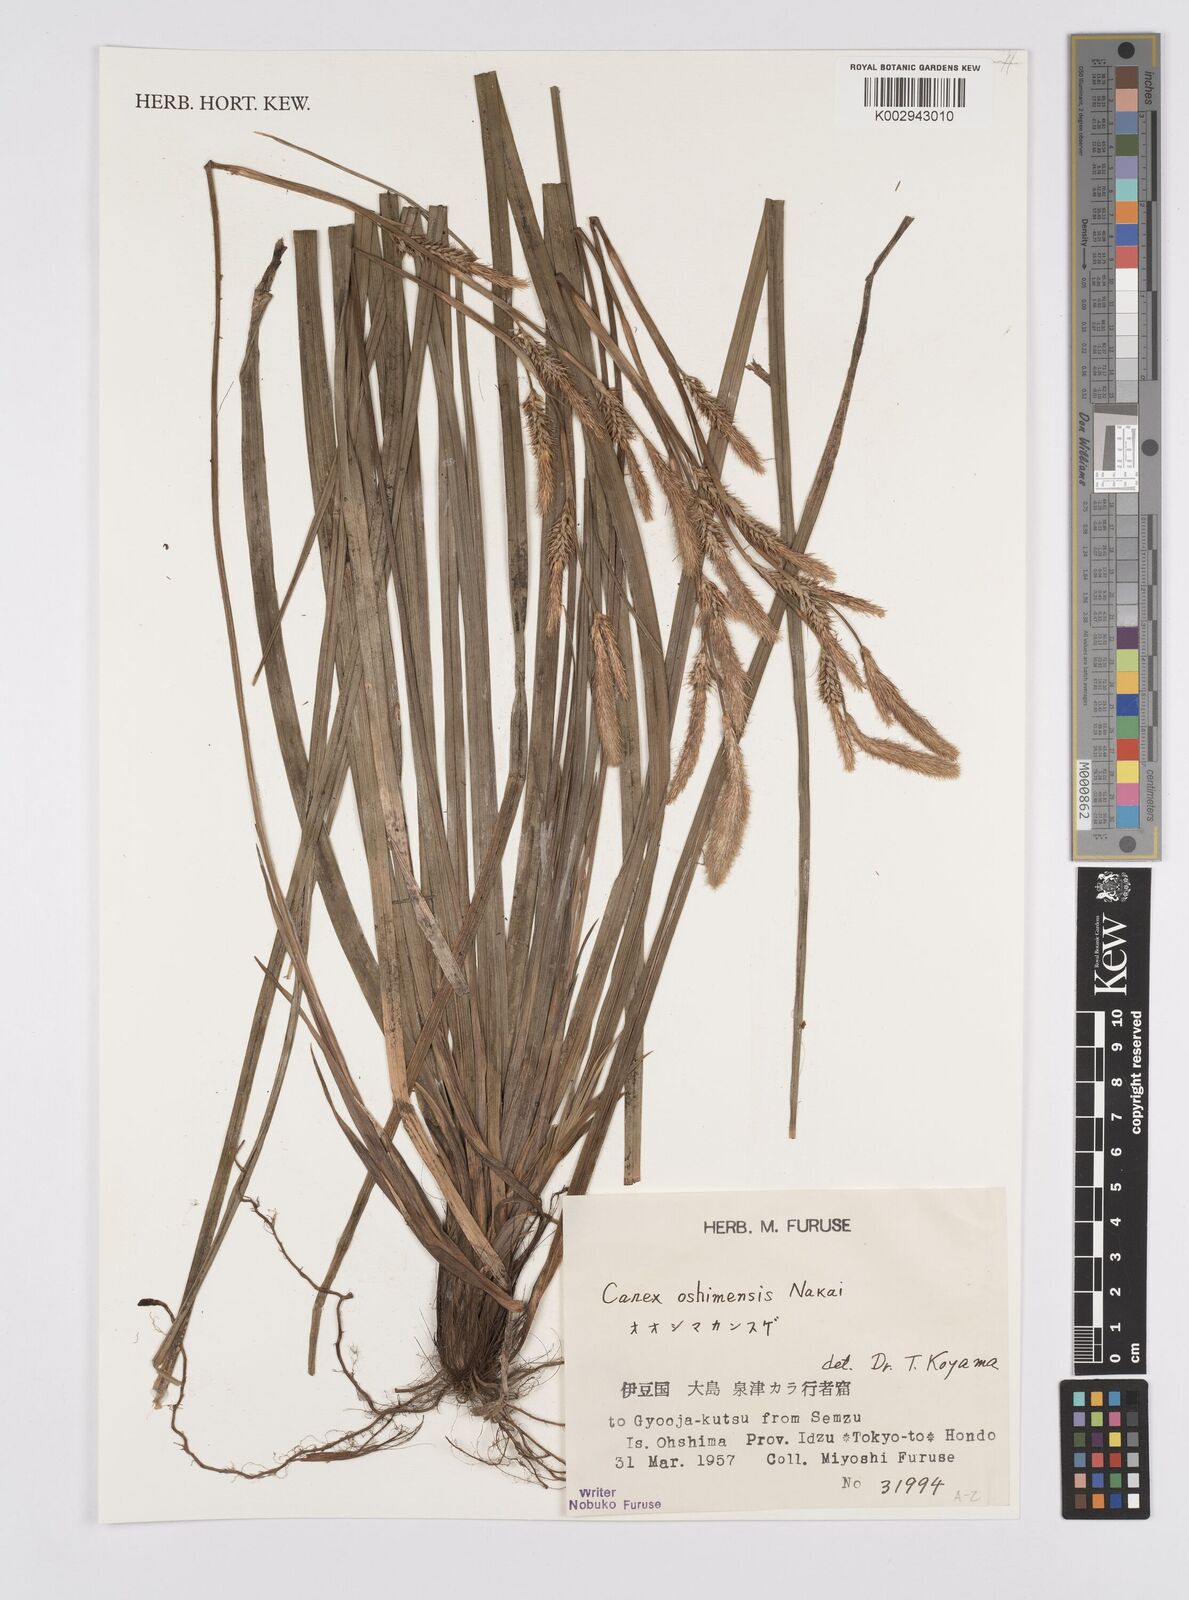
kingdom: Plantae
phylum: Tracheophyta
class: Liliopsida
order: Poales
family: Cyperaceae
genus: Carex
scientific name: Carex oshimensis
